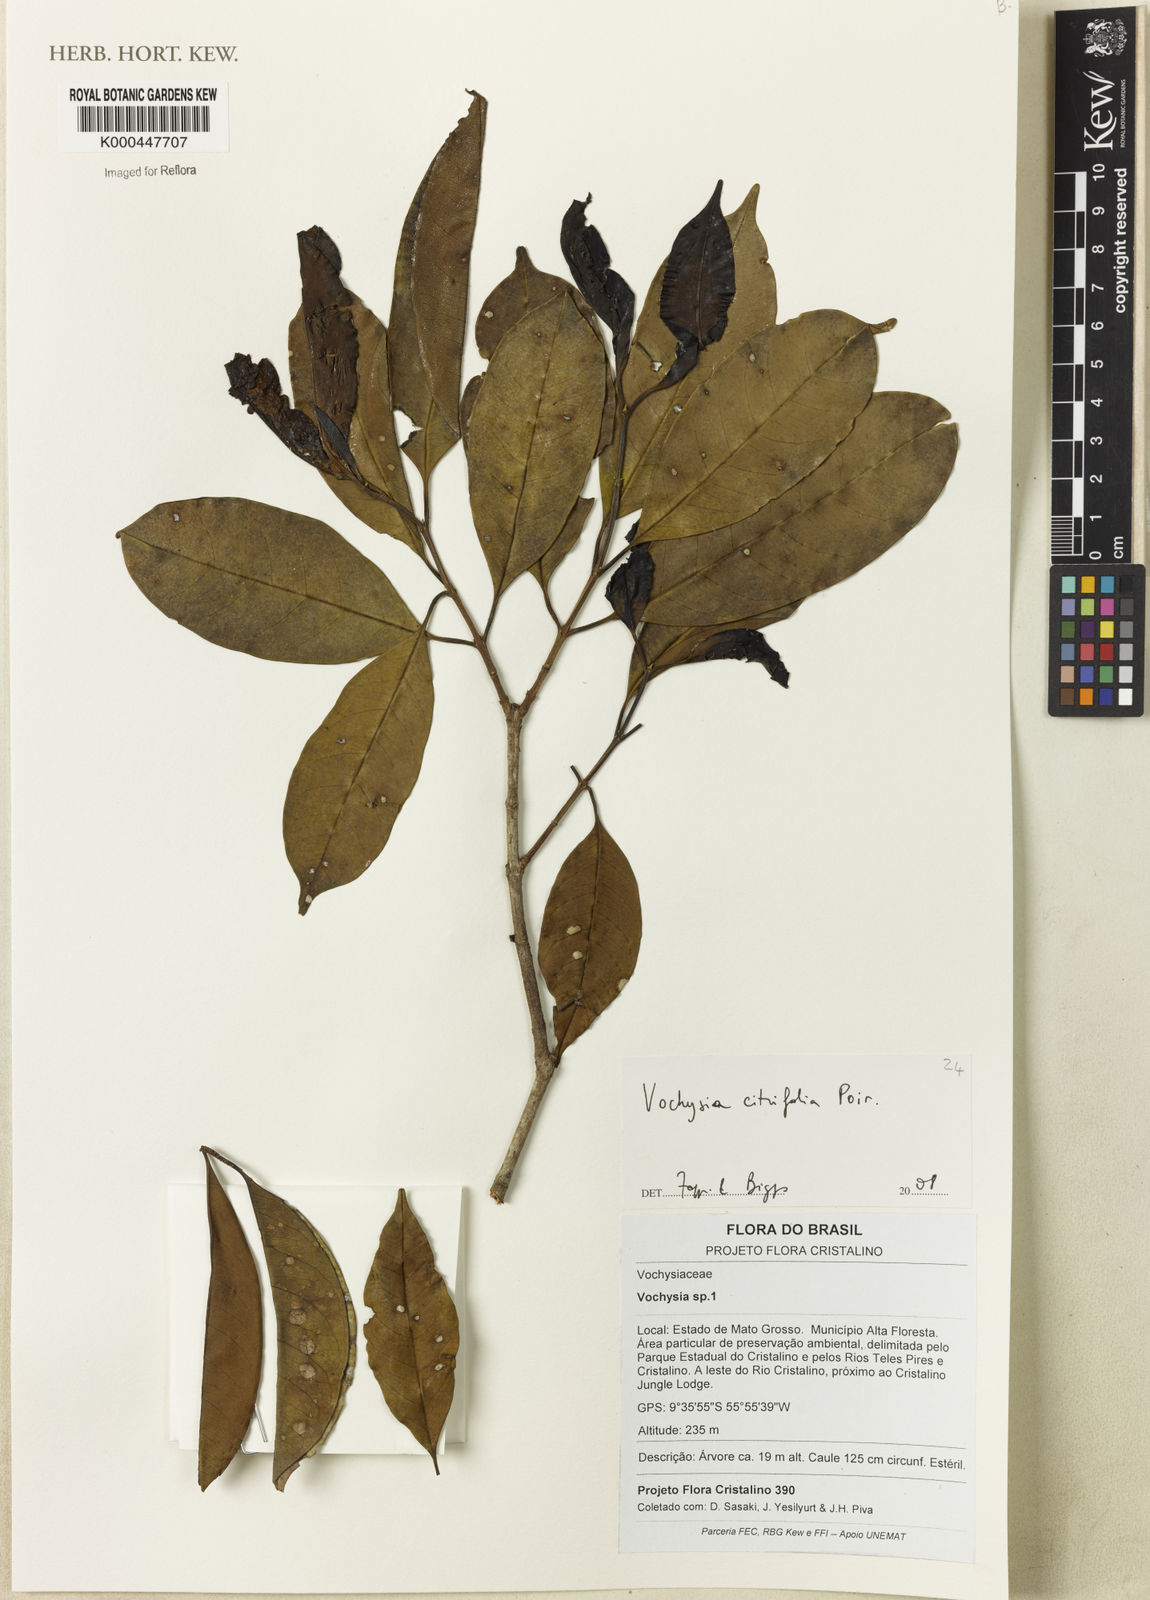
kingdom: Plantae
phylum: Tracheophyta
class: Magnoliopsida
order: Myrtales
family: Vochysiaceae
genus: Vochysia
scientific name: Vochysia citrifolia
